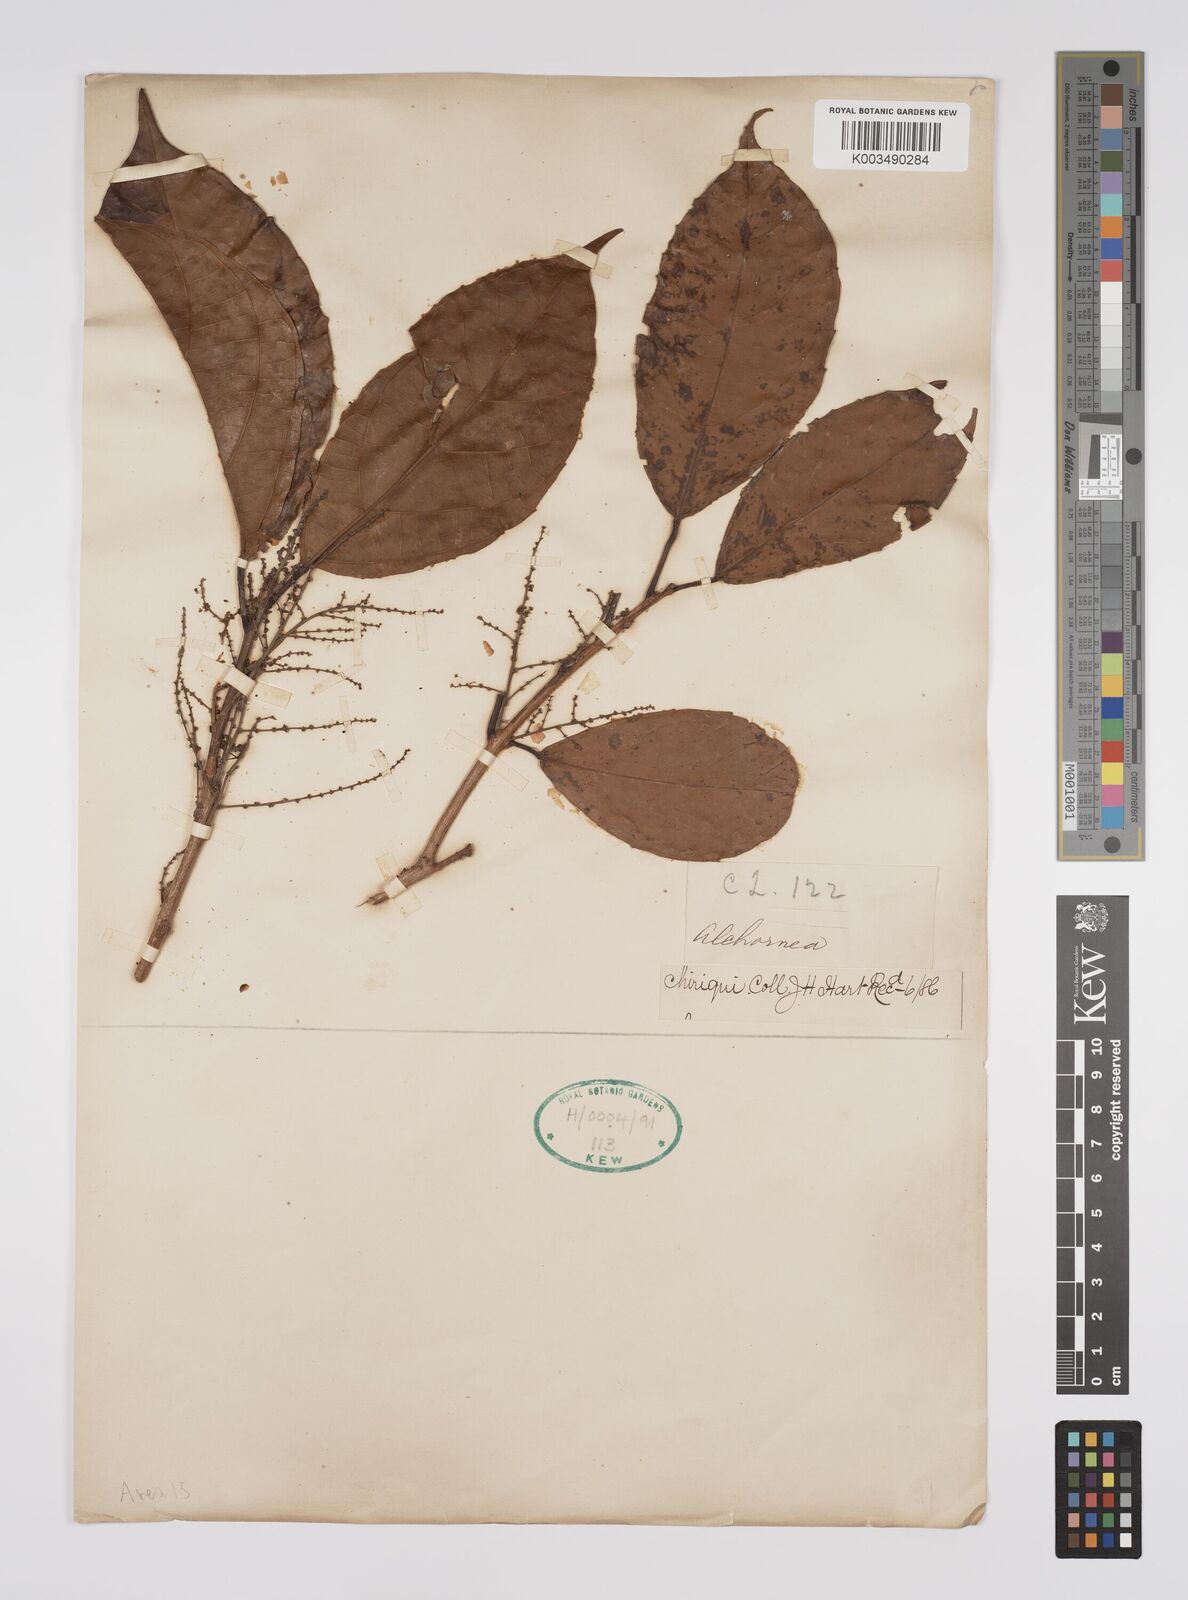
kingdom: Plantae
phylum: Tracheophyta
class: Magnoliopsida
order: Malpighiales
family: Euphorbiaceae
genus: Alchornea
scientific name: Alchornea
